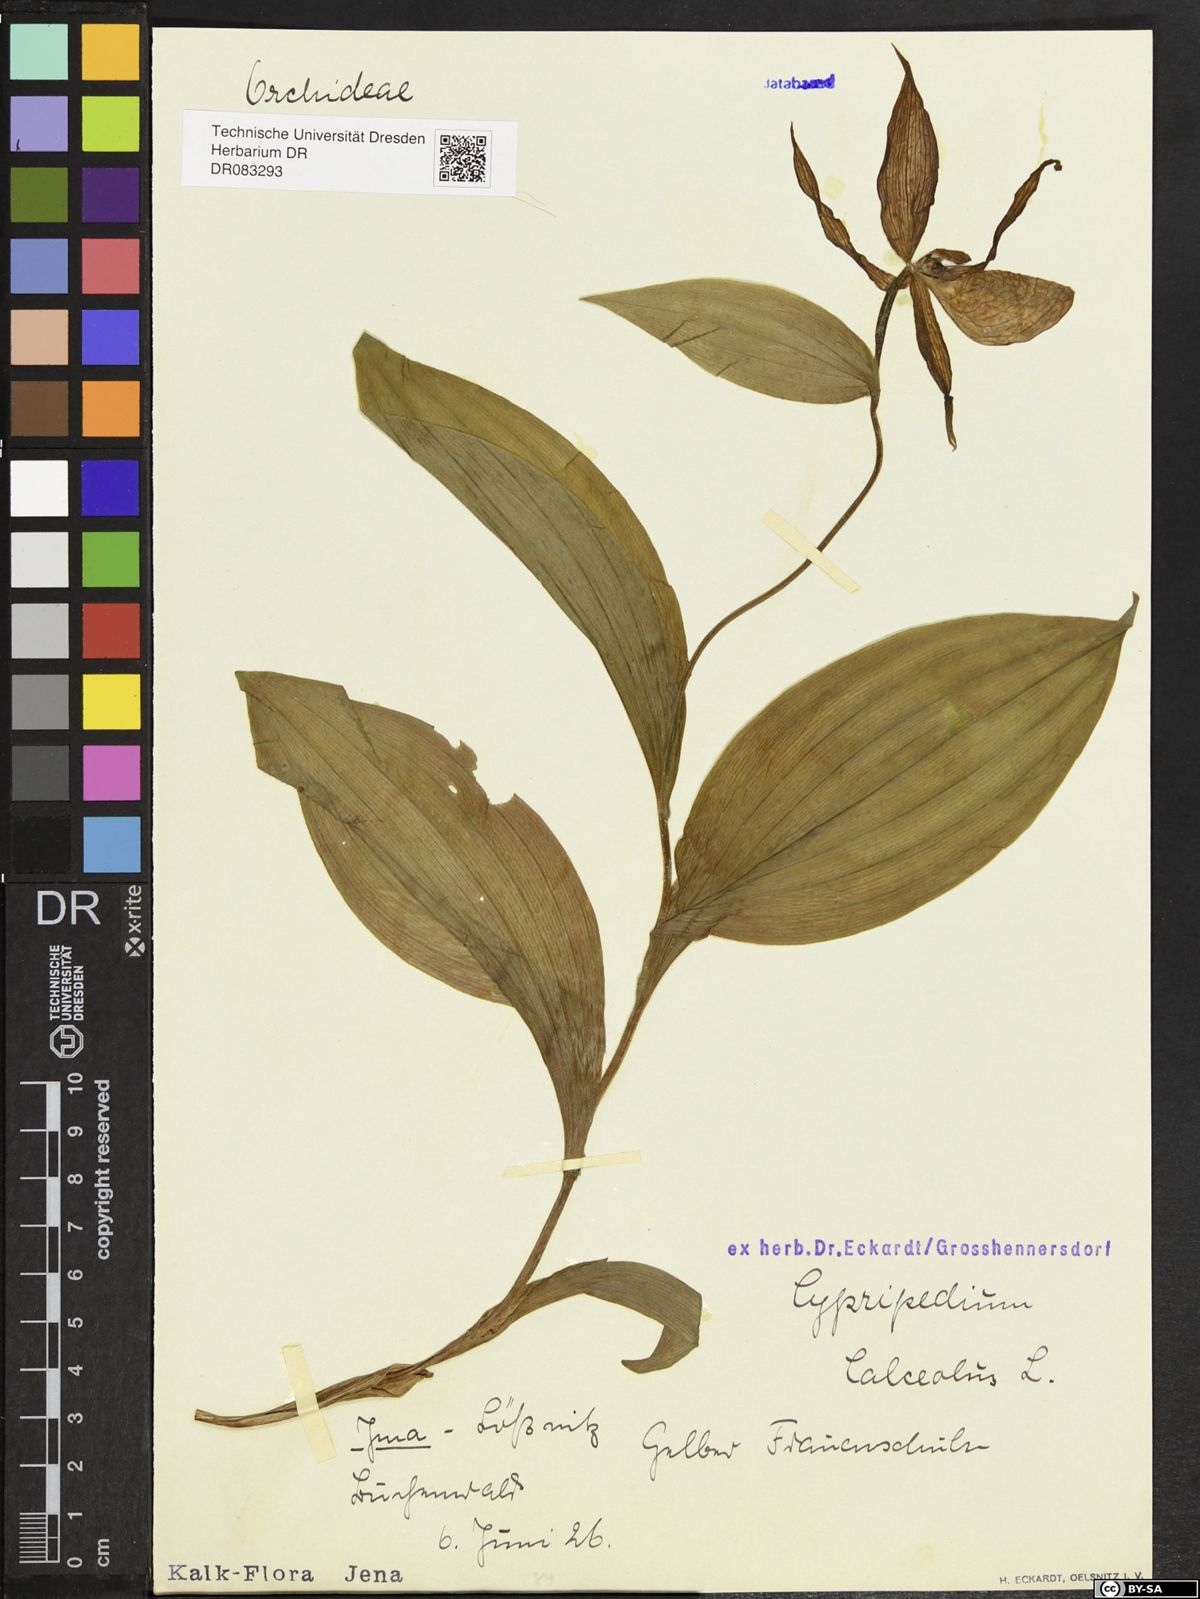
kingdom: Plantae
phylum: Tracheophyta
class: Liliopsida
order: Asparagales
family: Orchidaceae
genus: Cypripedium
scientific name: Cypripedium calceolus
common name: Lady's-slipper
